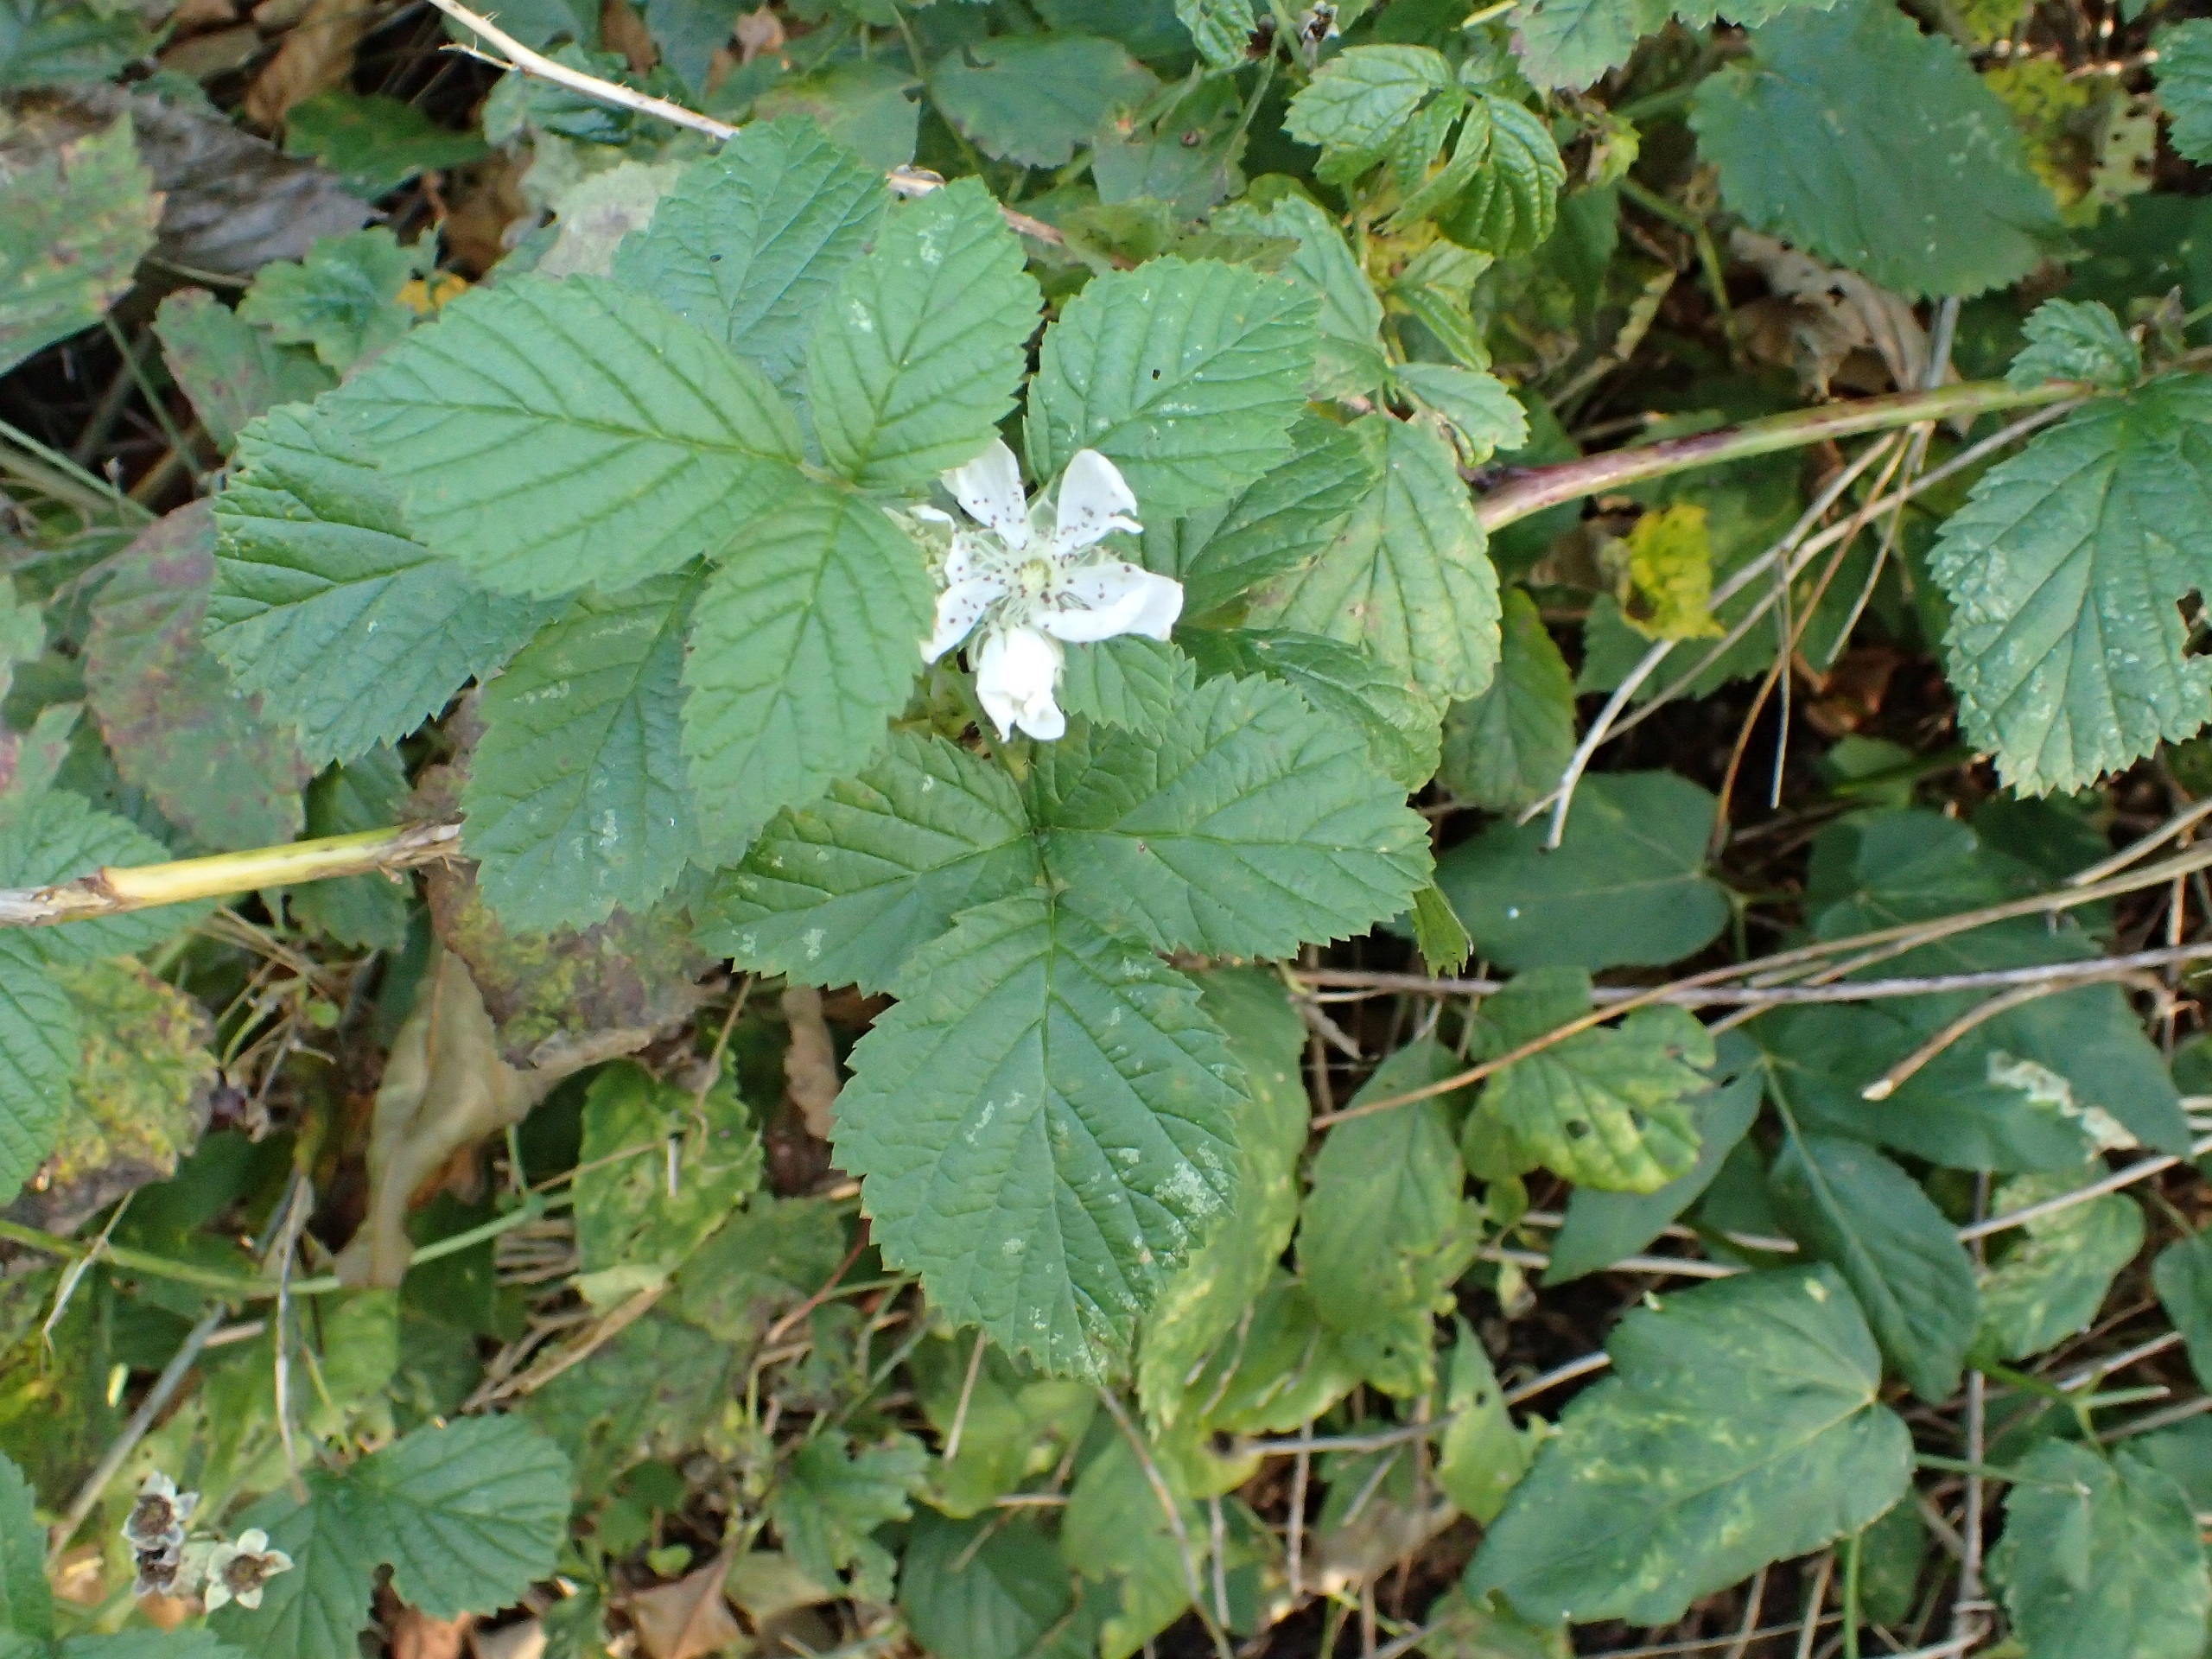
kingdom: Plantae
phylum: Tracheophyta
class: Magnoliopsida
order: Rosales
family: Rosaceae
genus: Rubus
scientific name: Rubus caesius
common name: Korbær
